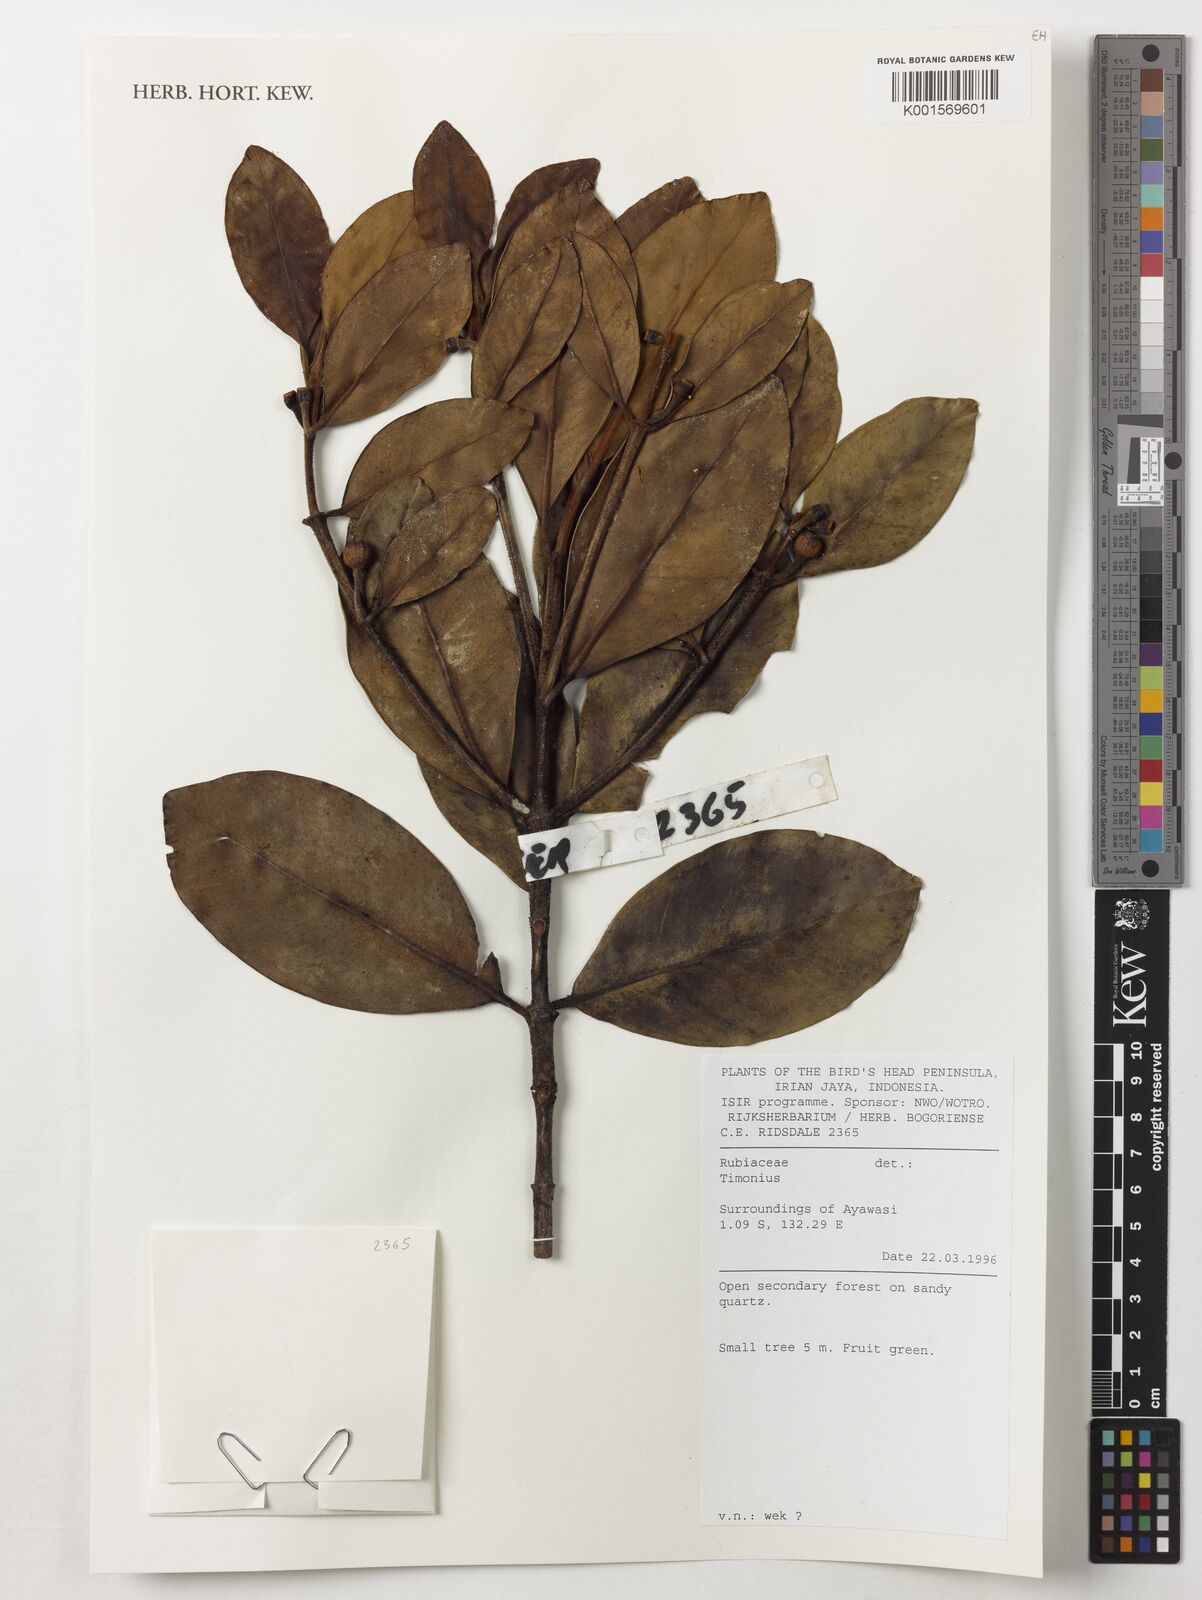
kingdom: Plantae
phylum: Tracheophyta
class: Magnoliopsida
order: Gentianales
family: Rubiaceae
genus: Timonius
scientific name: Timonius
